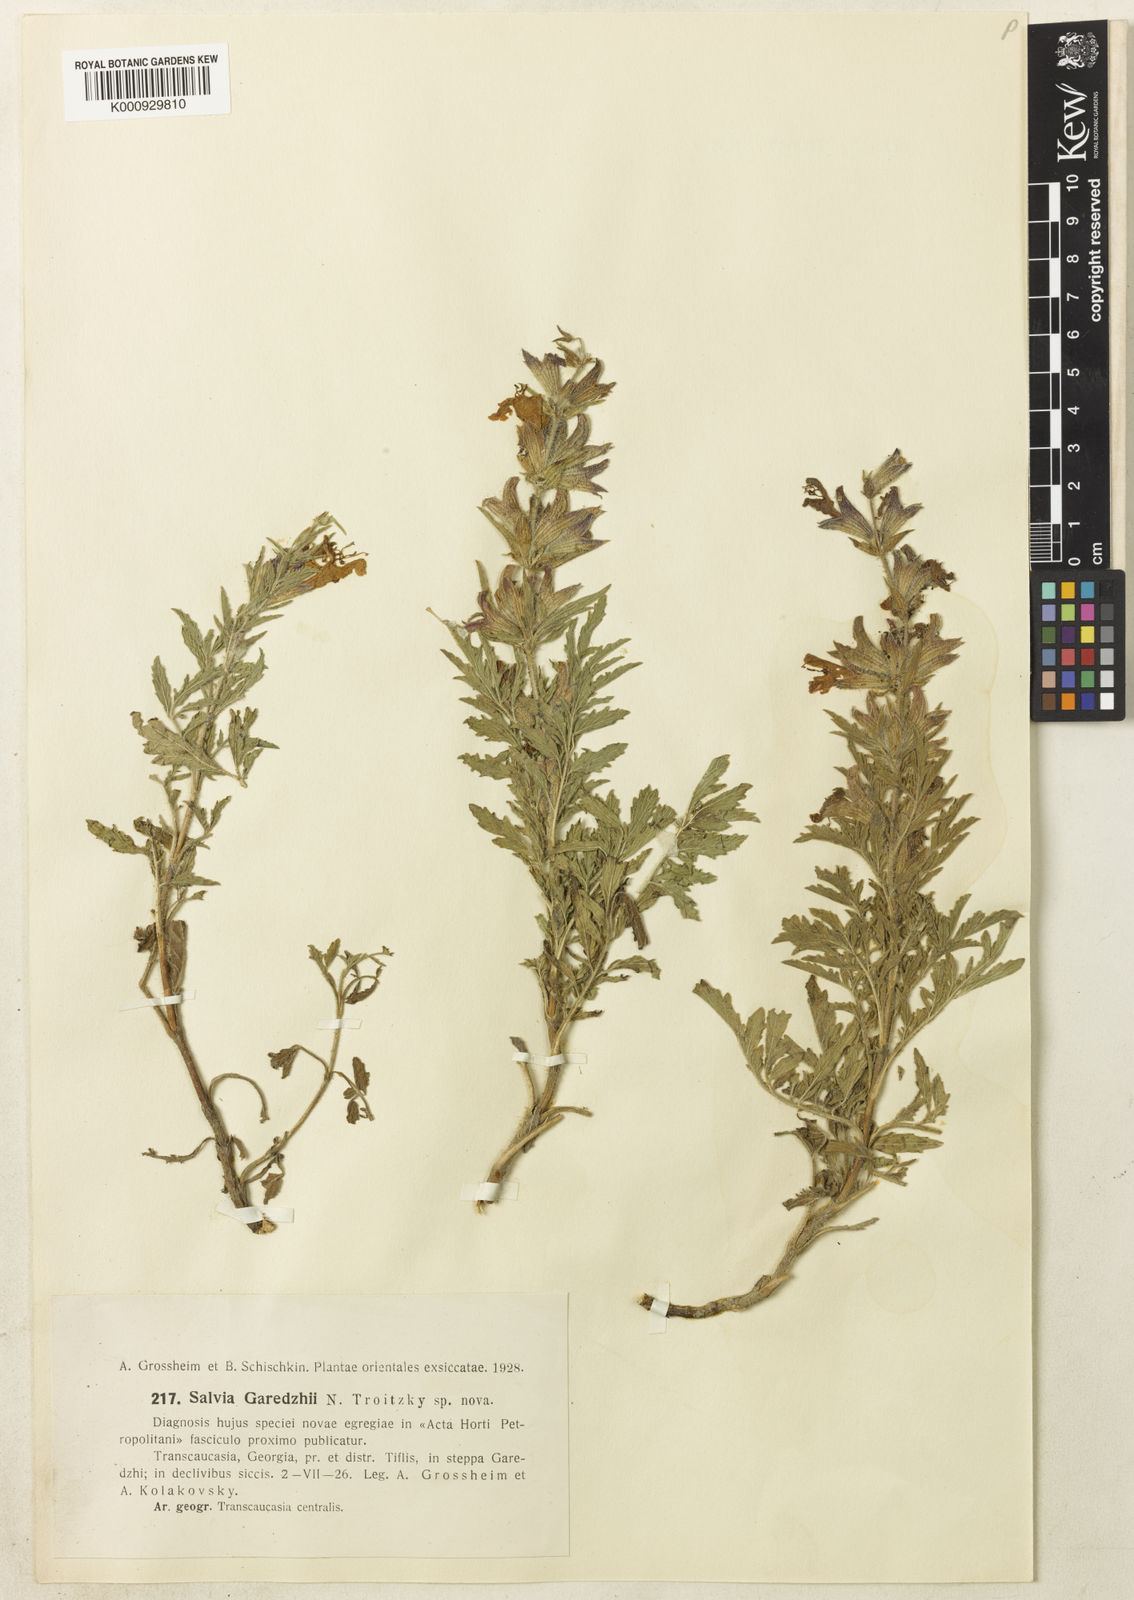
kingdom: Plantae
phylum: Tracheophyta
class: Magnoliopsida
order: Lamiales
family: Lamiaceae
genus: Salvia
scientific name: Salvia
